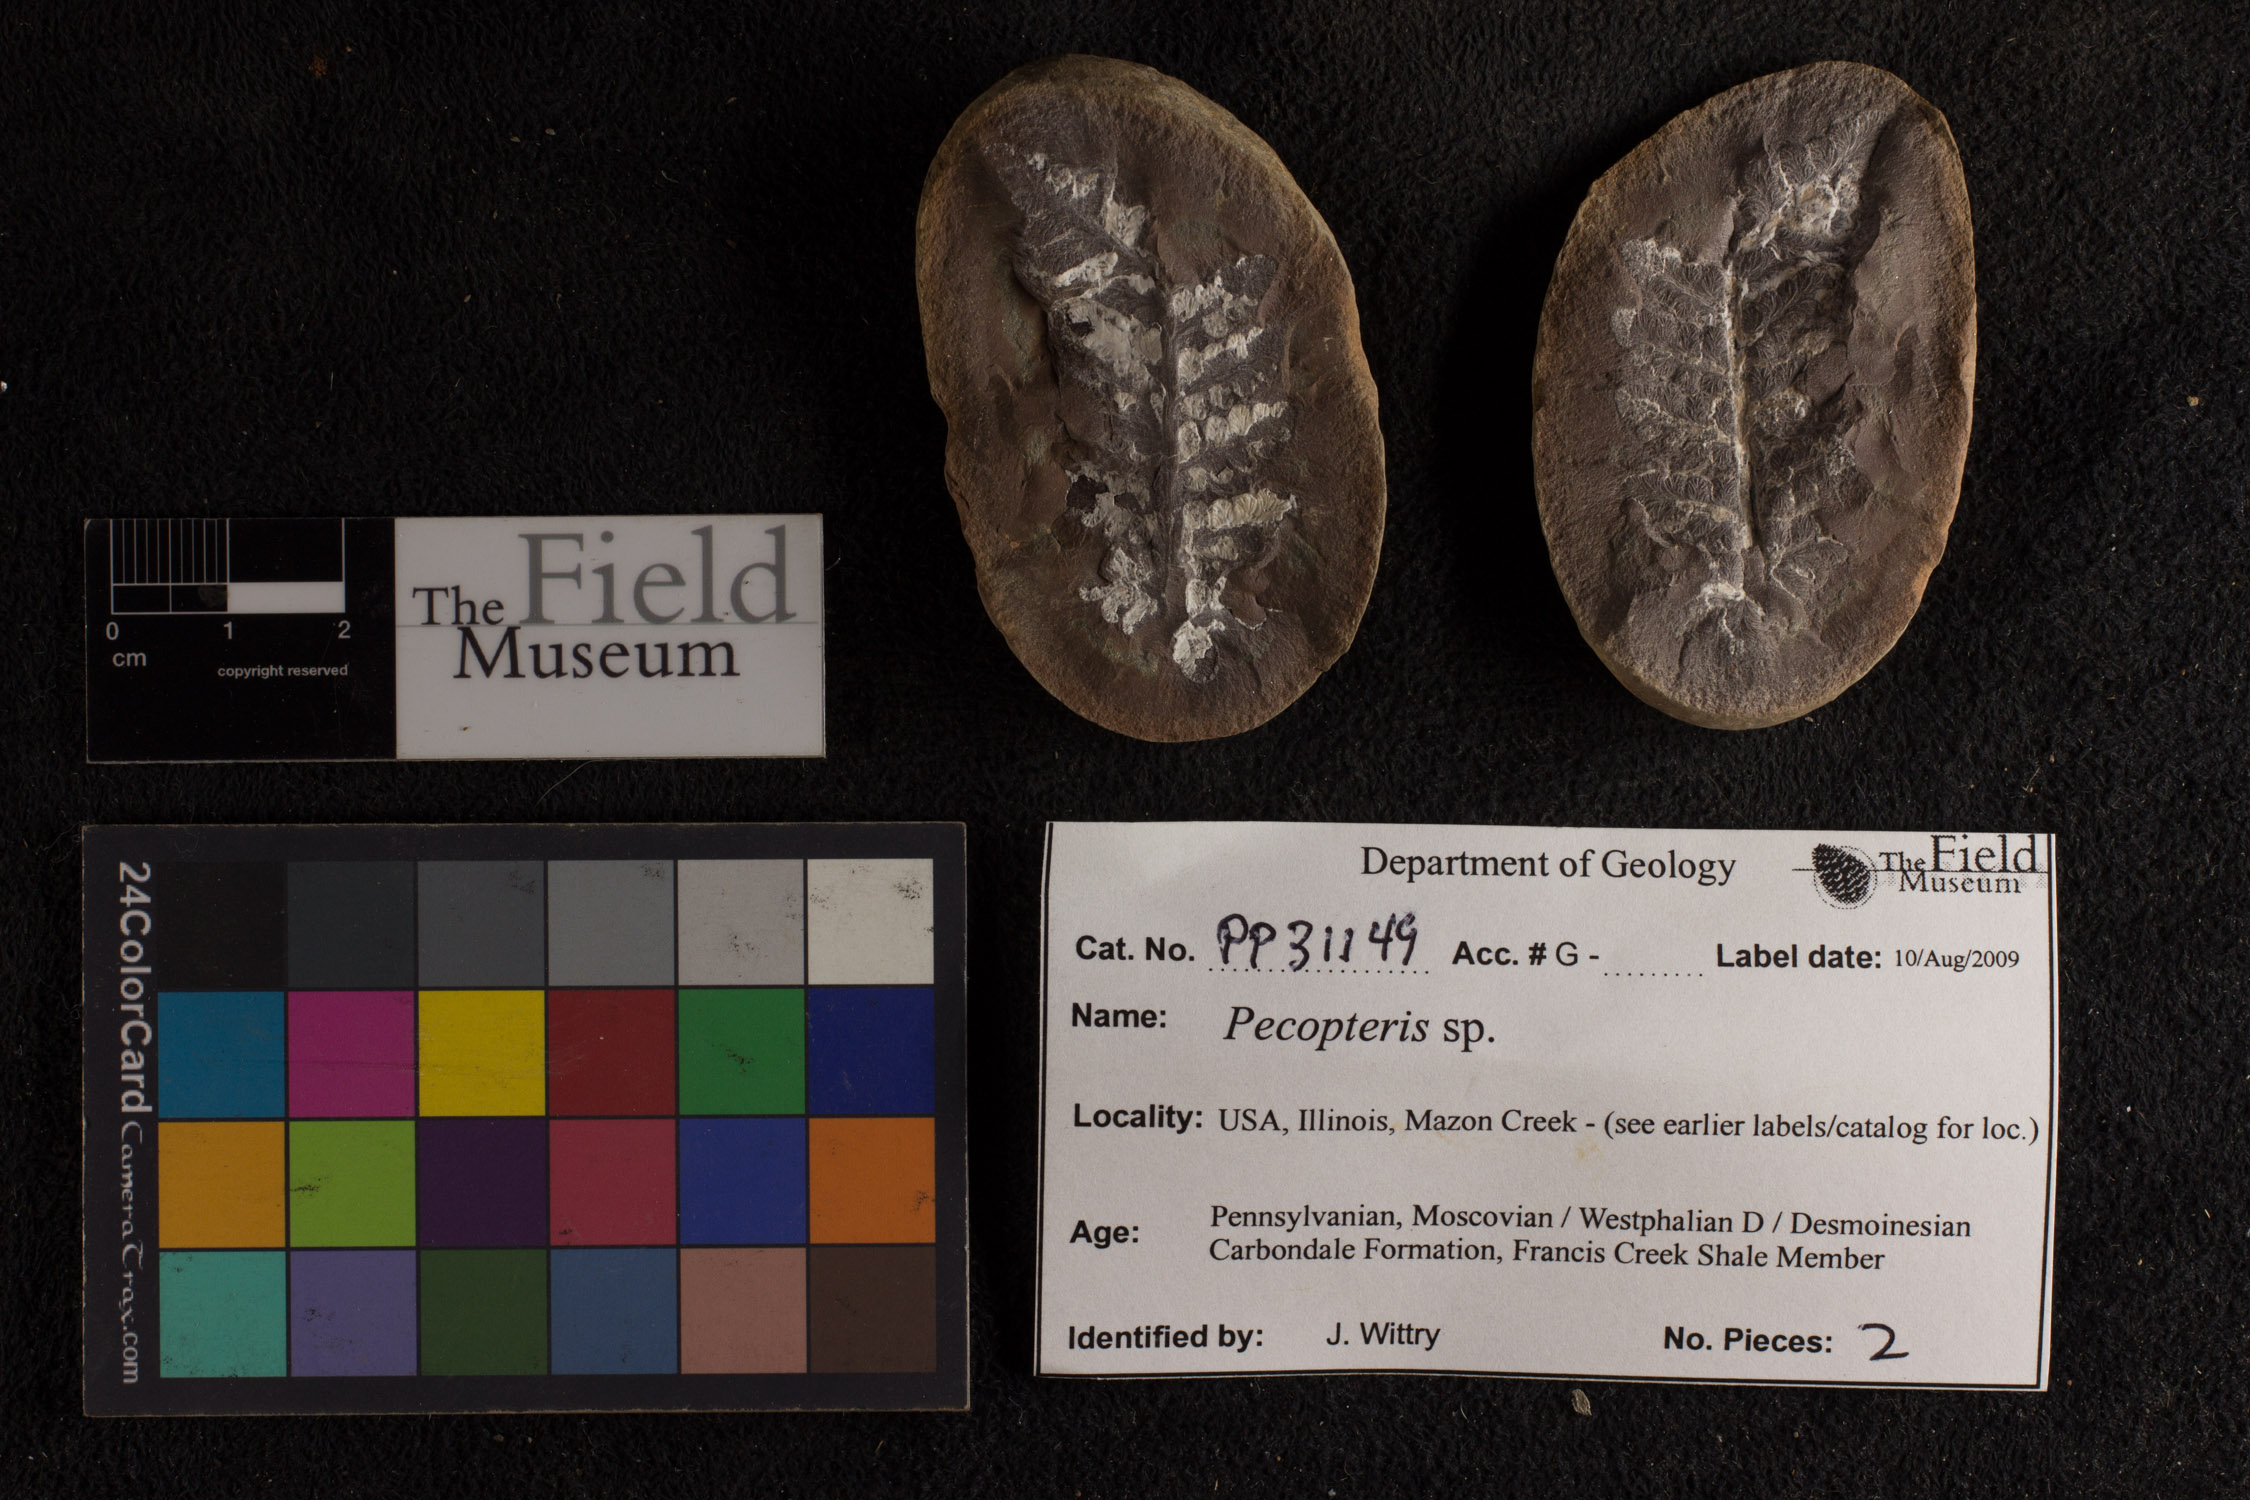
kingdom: Plantae
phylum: Tracheophyta
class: Polypodiopsida
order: Marattiales
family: Asterothecaceae
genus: Pecopteris
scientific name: Pecopteris
